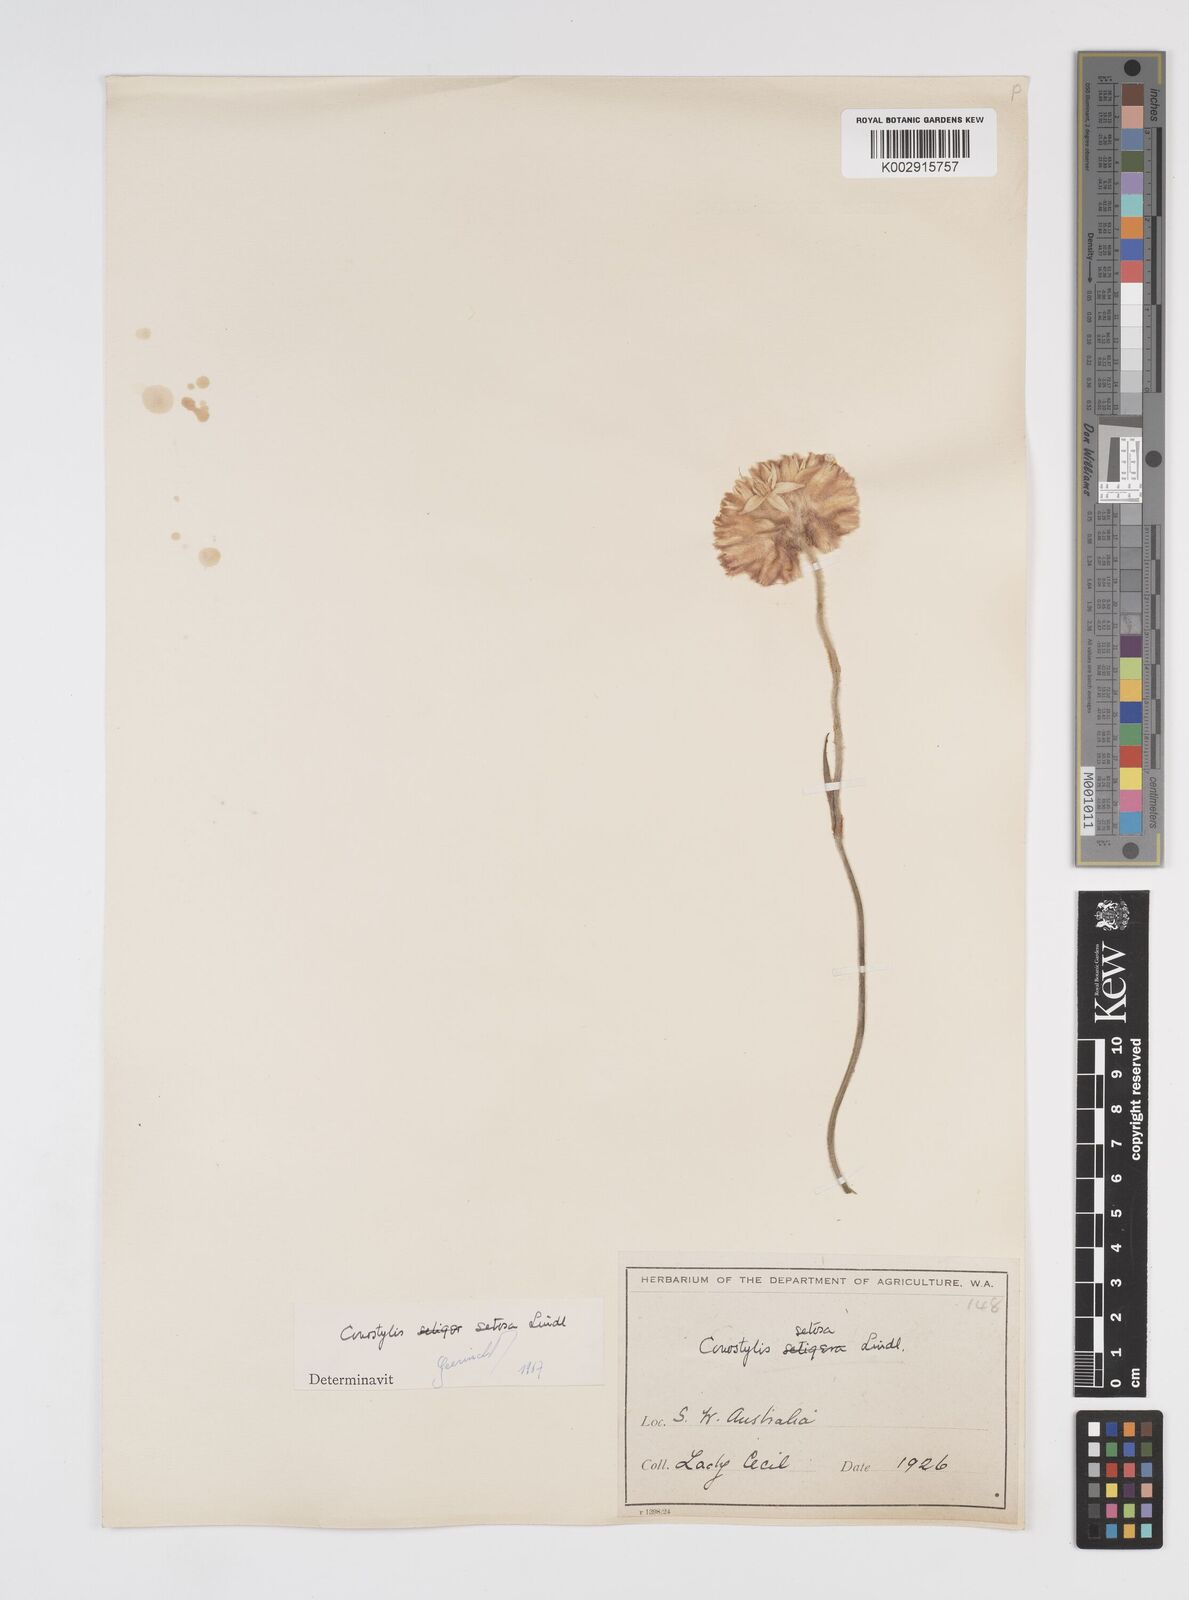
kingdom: Plantae
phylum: Tracheophyta
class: Liliopsida
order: Commelinales
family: Haemodoraceae
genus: Conostylis
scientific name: Conostylis setosa
